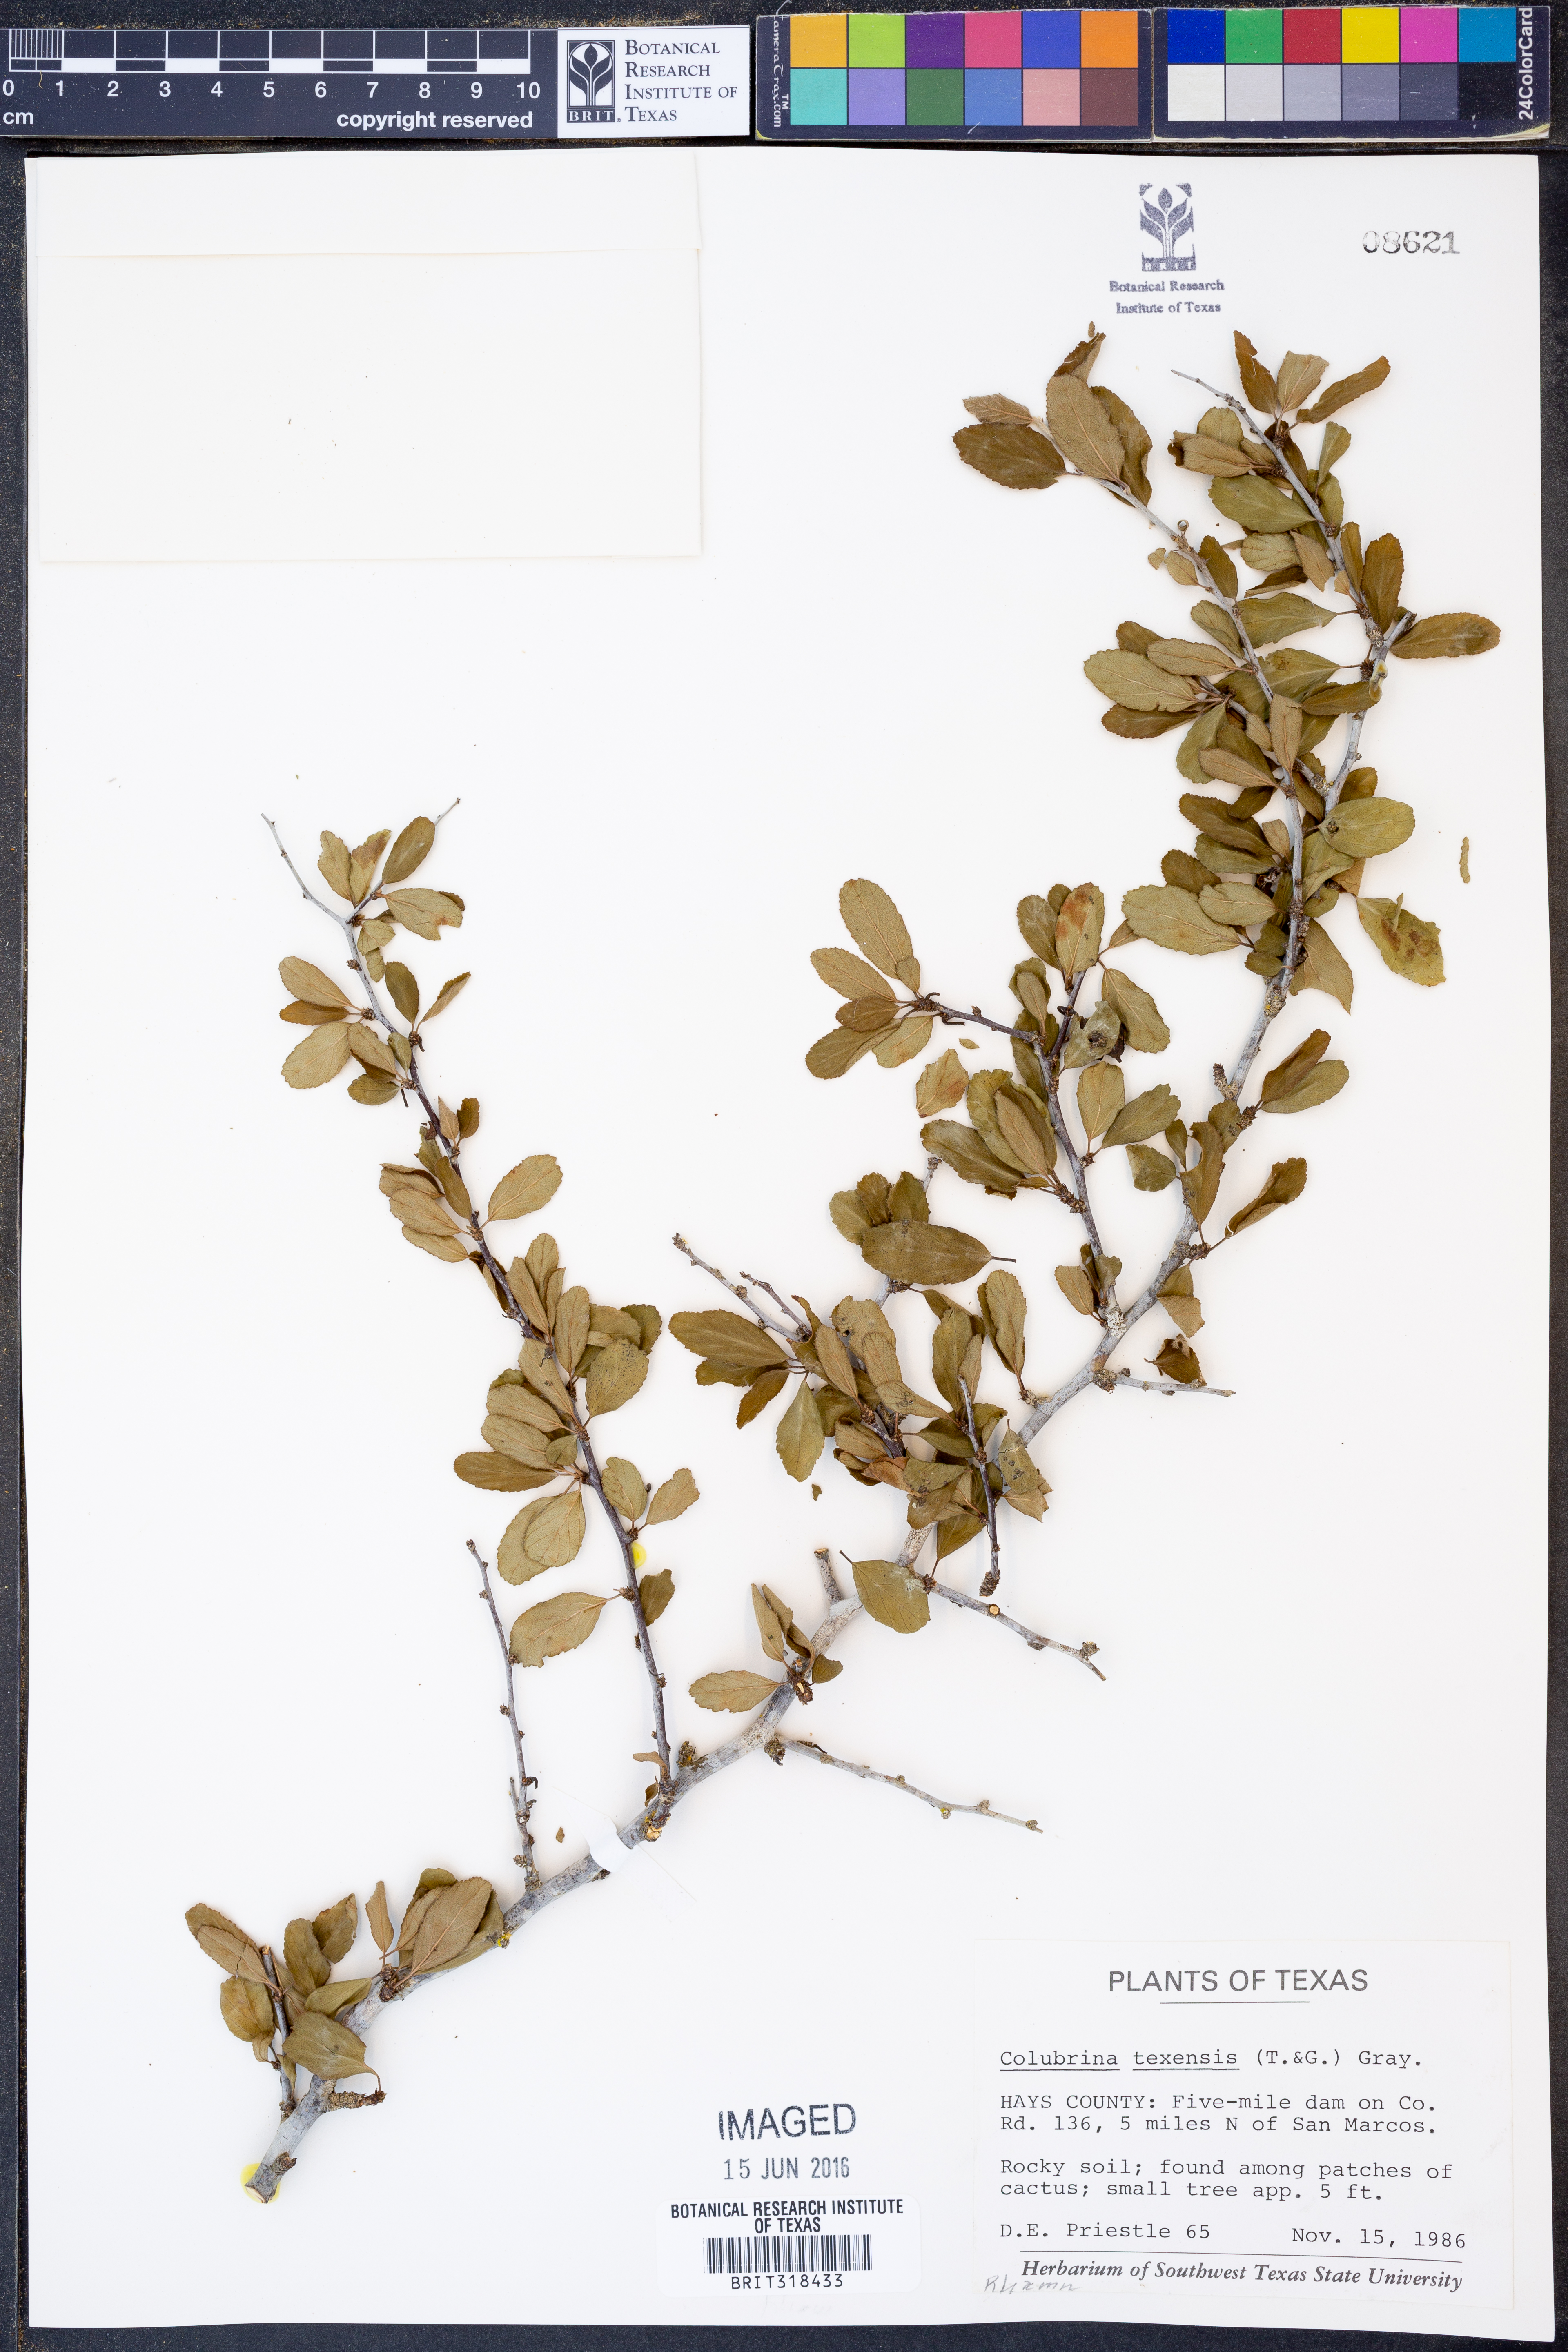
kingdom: Plantae
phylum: Tracheophyta
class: Magnoliopsida
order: Rosales
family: Rhamnaceae
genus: Colubrina
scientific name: Colubrina texensis
